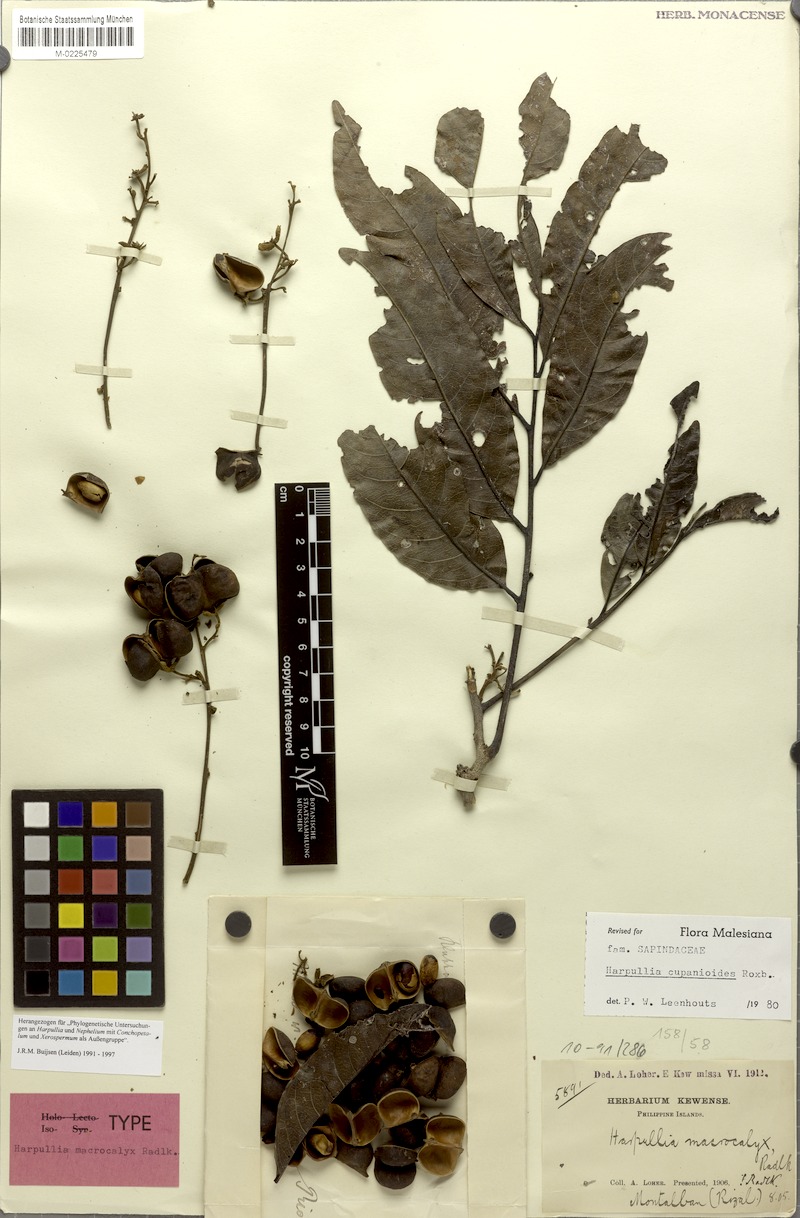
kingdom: Plantae
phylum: Tracheophyta
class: Magnoliopsida
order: Sapindales
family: Sapindaceae
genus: Harpullia
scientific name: Harpullia cupanioides
